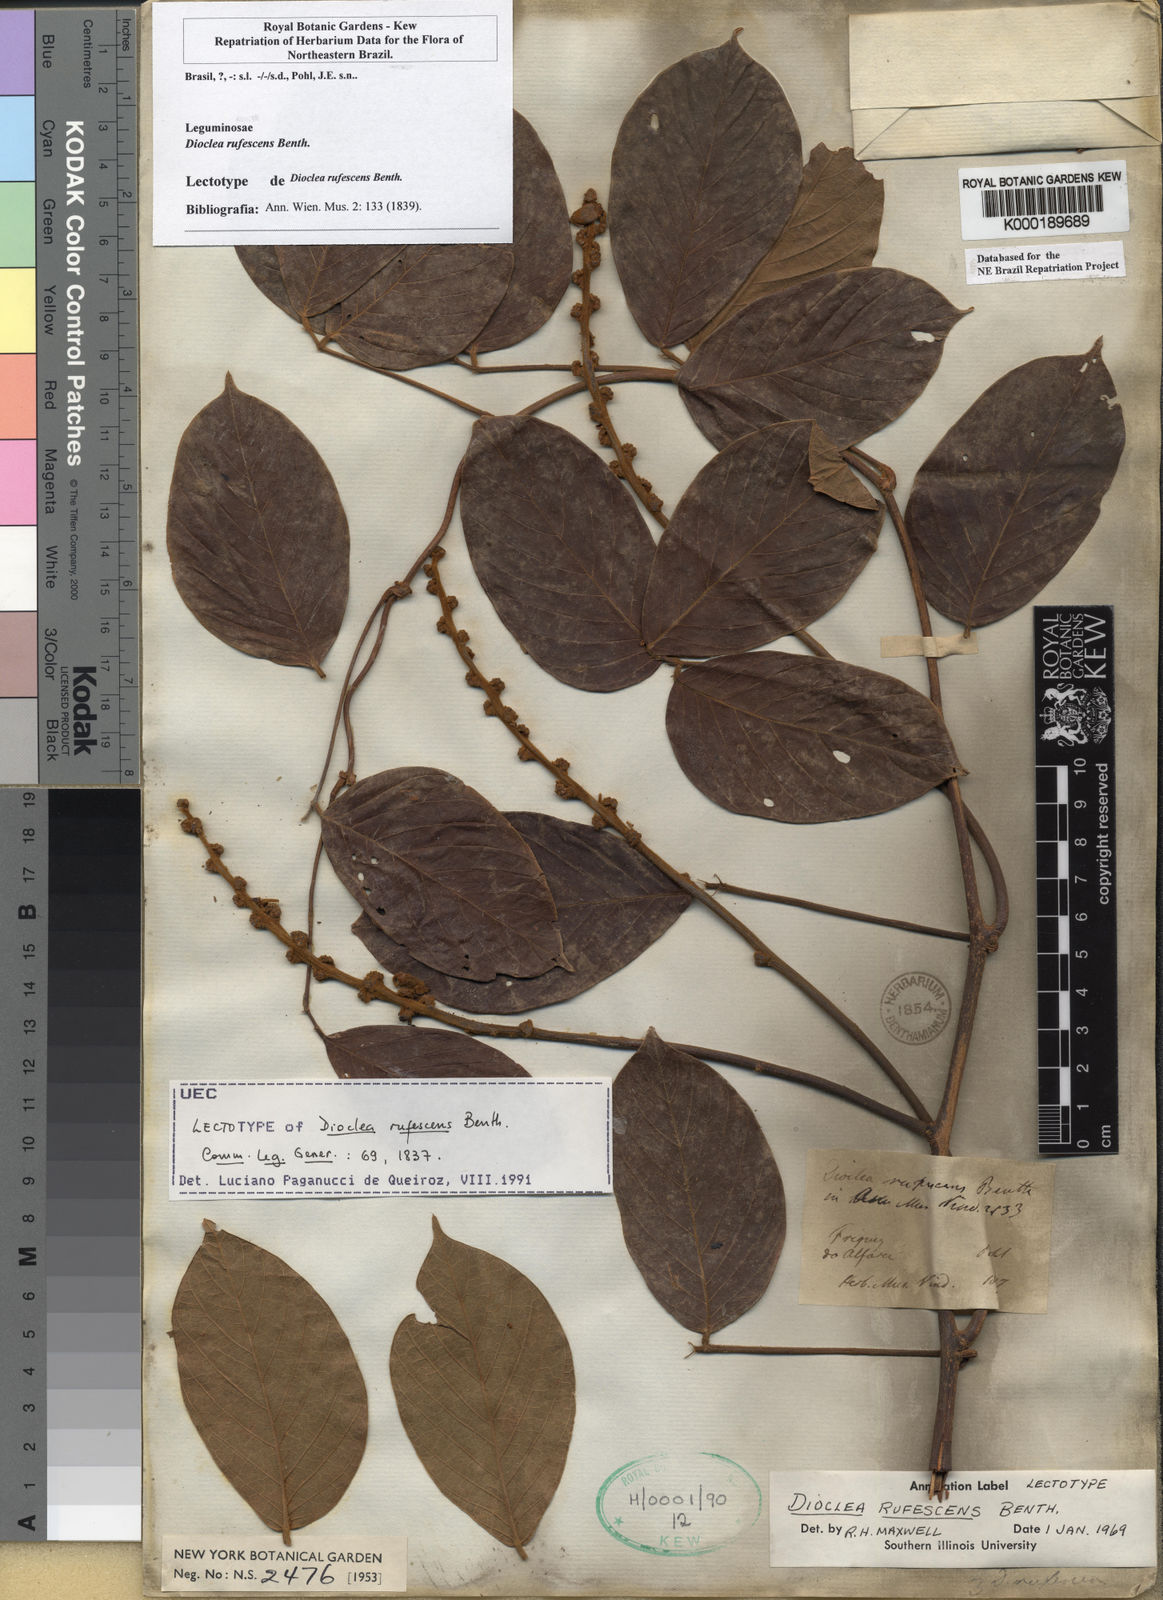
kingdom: Plantae
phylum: Tracheophyta
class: Magnoliopsida
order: Fabales
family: Fabaceae
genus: Macropsychanthus
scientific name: Macropsychanthus rufescens
